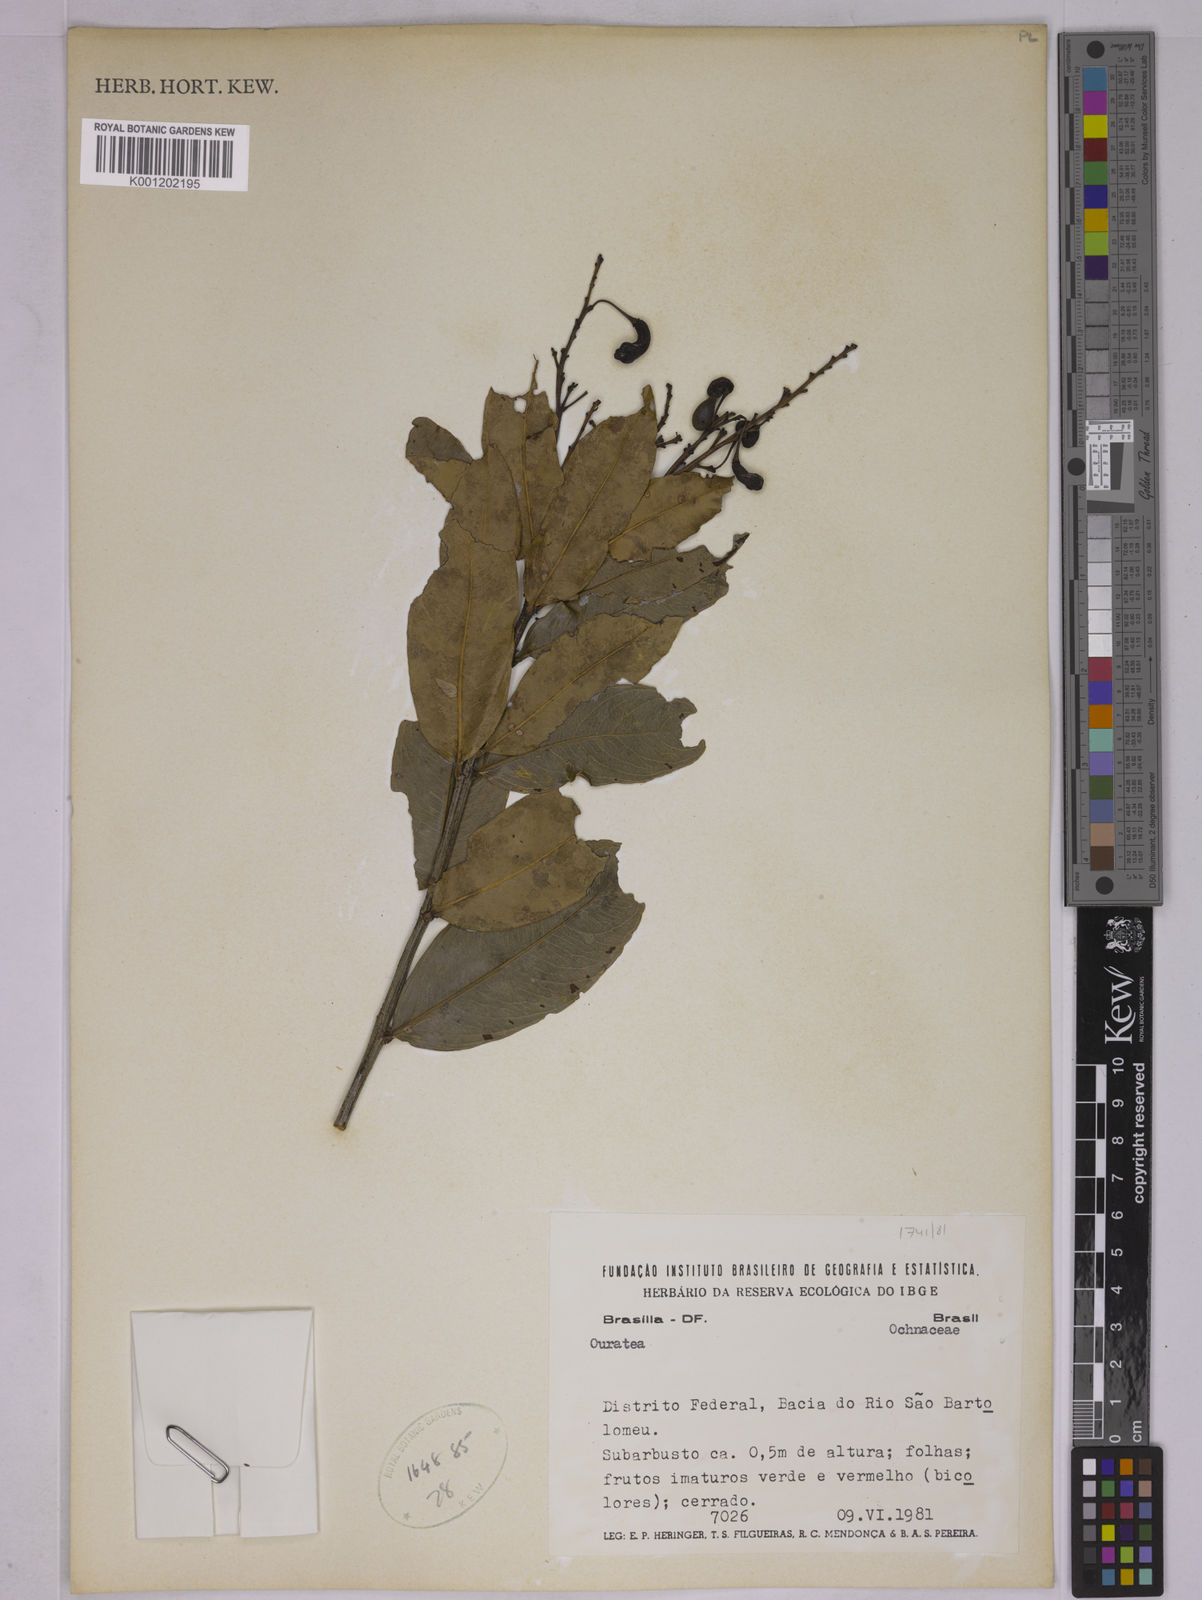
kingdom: Plantae
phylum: Tracheophyta
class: Magnoliopsida
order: Malpighiales
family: Ochnaceae
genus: Ouratea
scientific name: Ouratea
